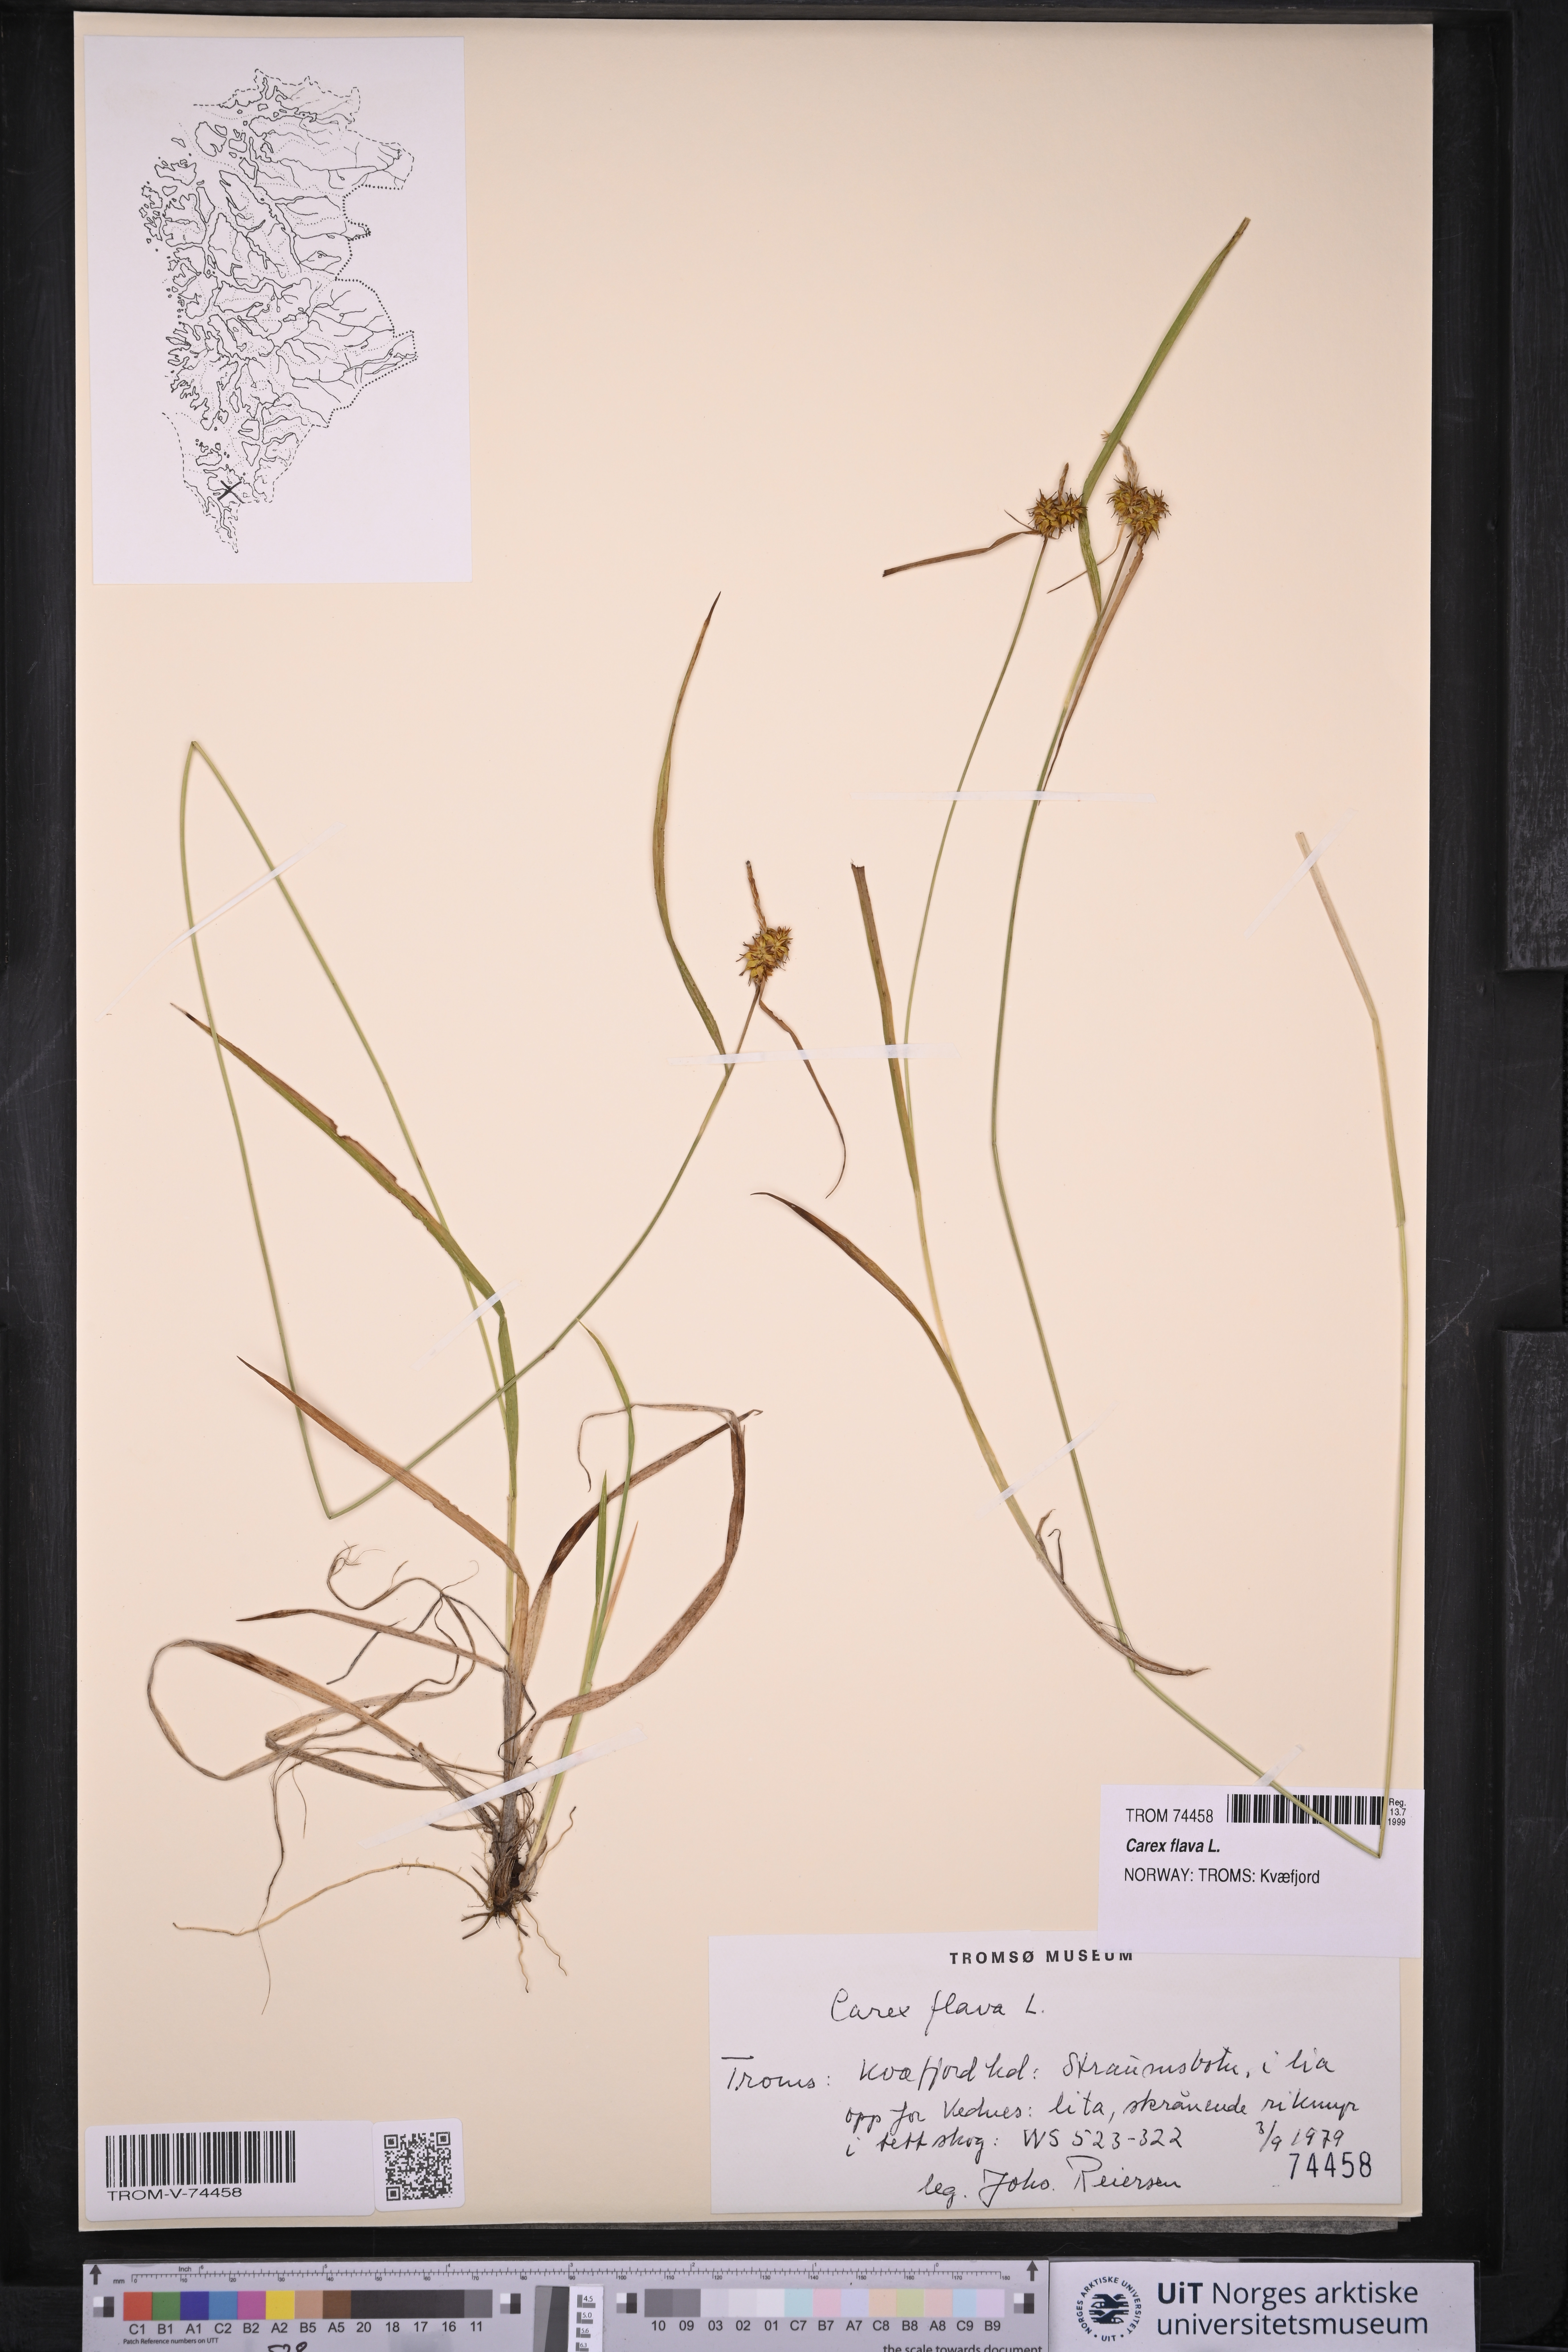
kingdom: Plantae
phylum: Tracheophyta
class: Liliopsida
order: Poales
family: Cyperaceae
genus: Carex
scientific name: Carex flava
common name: Large yellow-sedge
